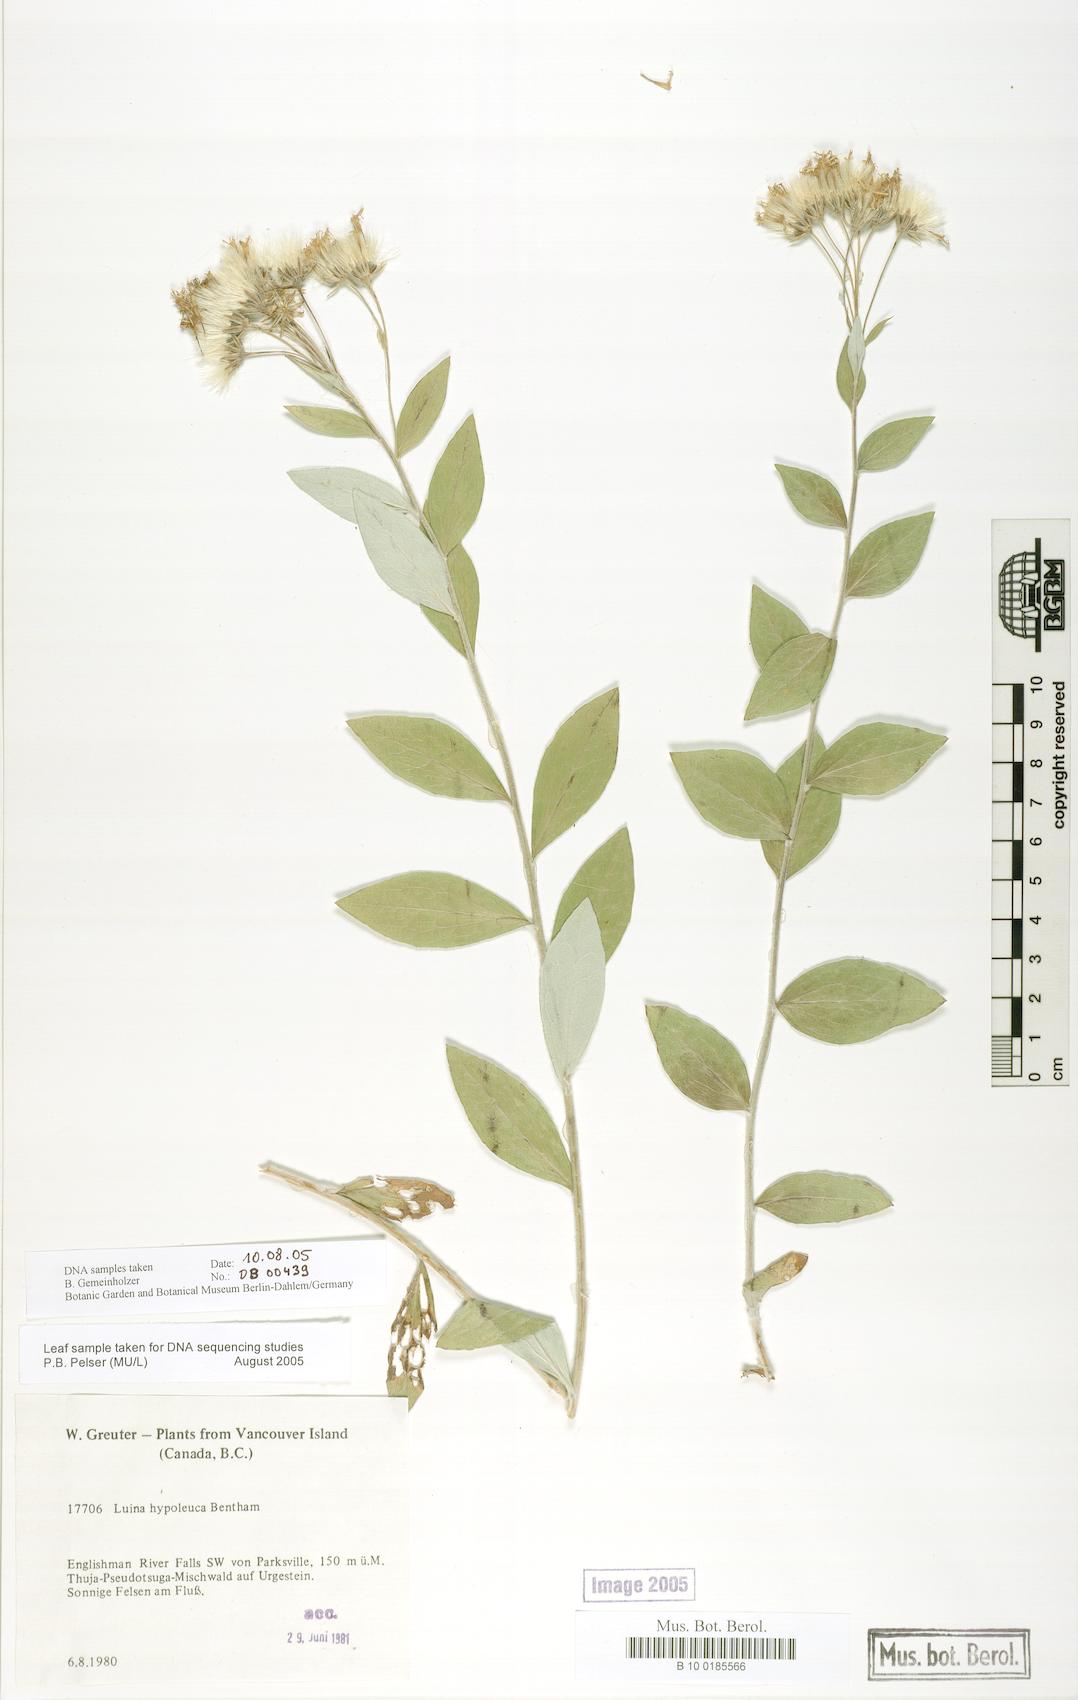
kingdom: Plantae
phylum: Tracheophyta
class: Magnoliopsida
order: Asterales
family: Asteraceae
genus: Luina
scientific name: Luina hypoleuca
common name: Little-leaved luina
